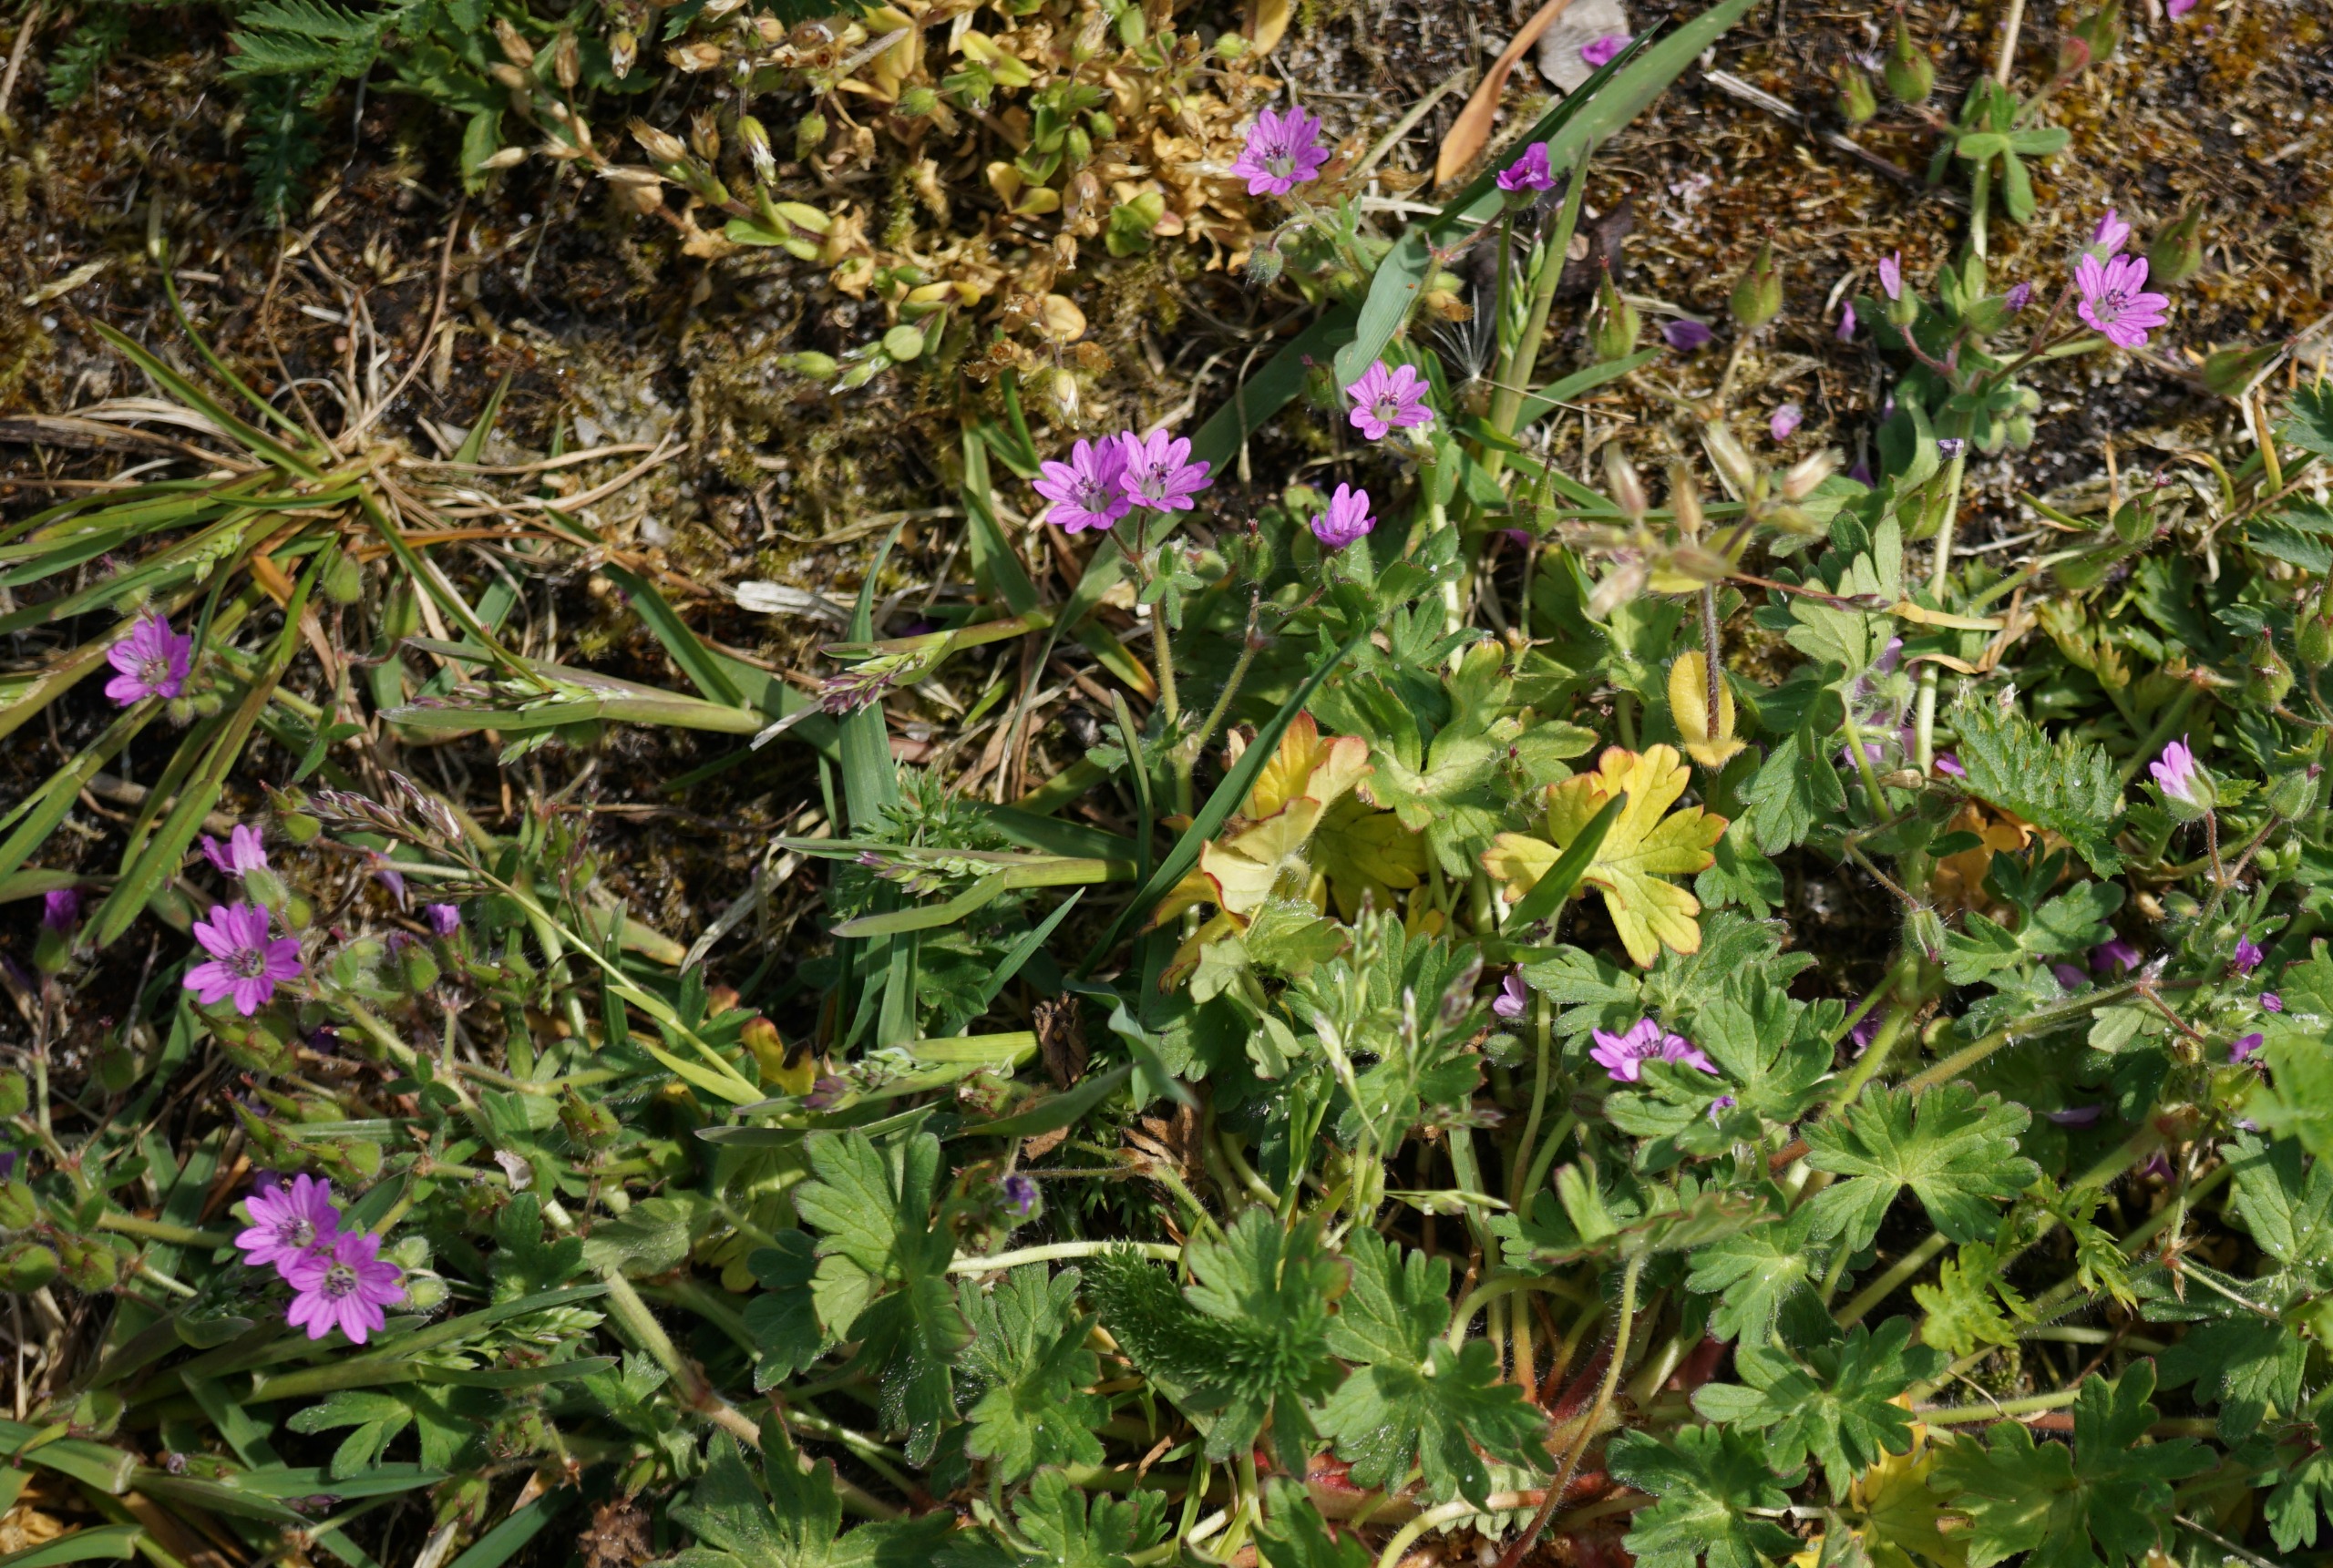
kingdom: Plantae
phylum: Tracheophyta
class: Magnoliopsida
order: Geraniales
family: Geraniaceae
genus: Geranium
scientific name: Geranium molle
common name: Blød storkenæb
